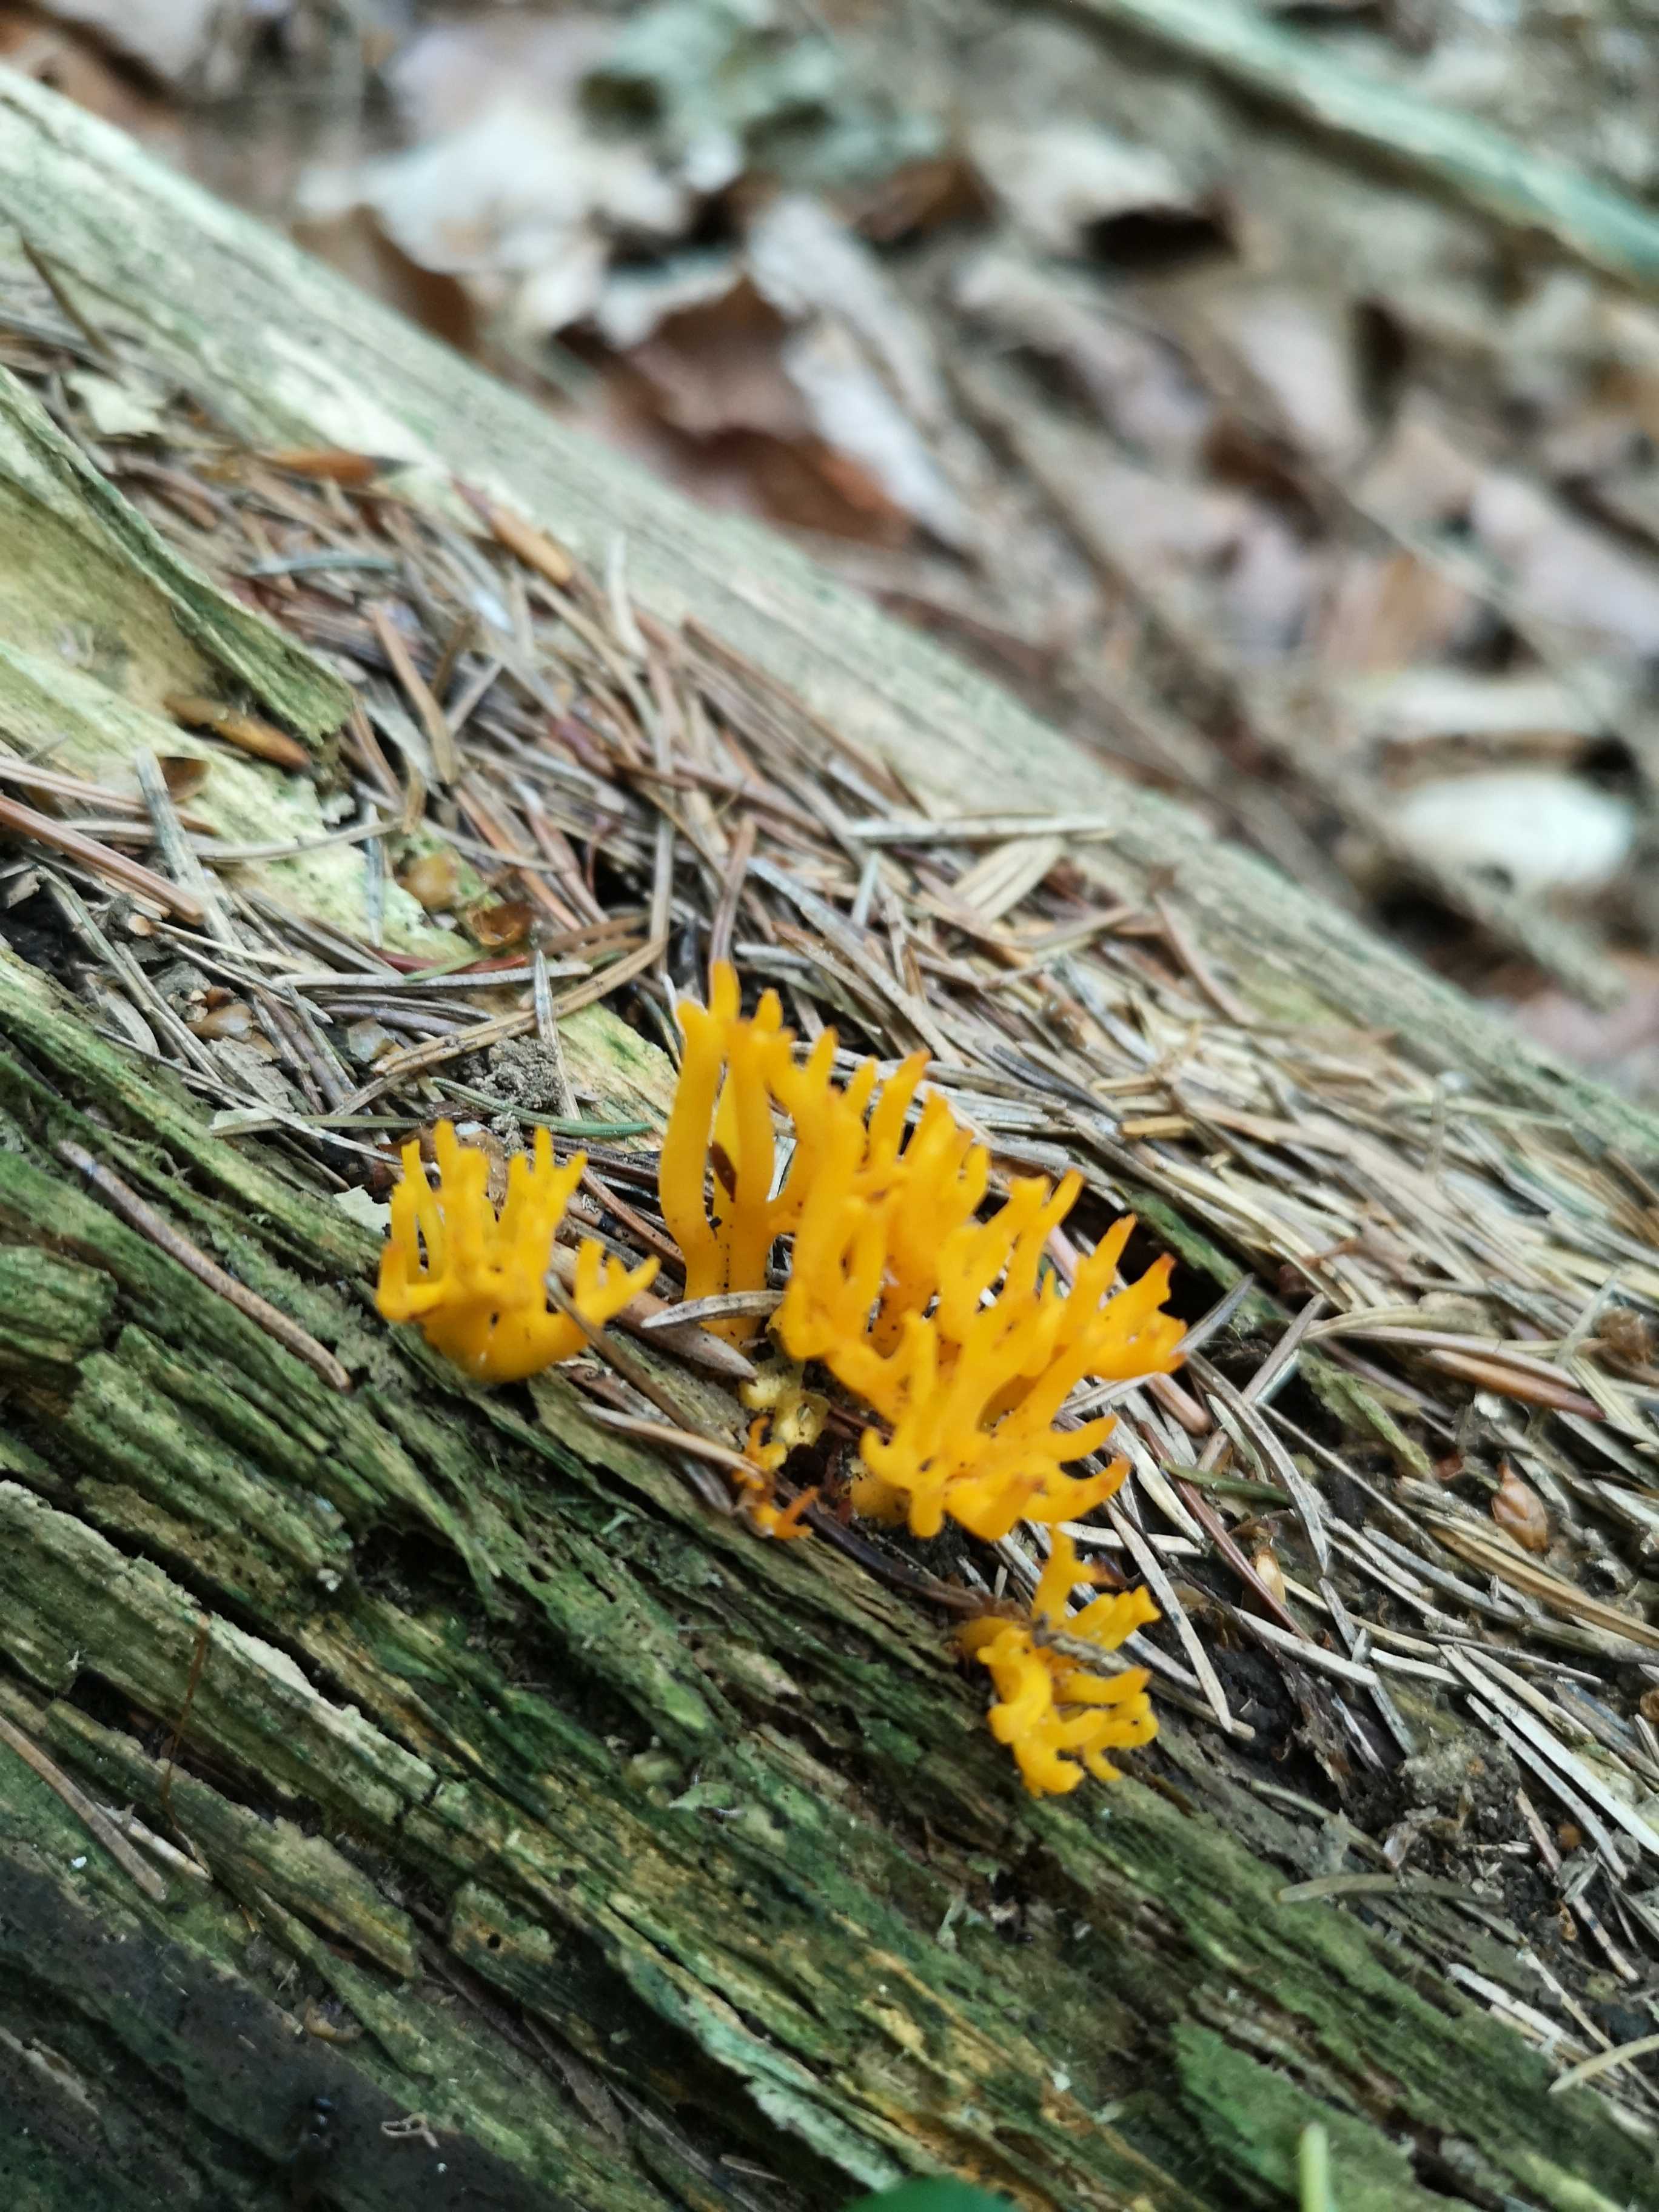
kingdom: Fungi
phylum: Basidiomycota
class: Dacrymycetes
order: Dacrymycetales
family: Dacrymycetaceae
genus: Calocera
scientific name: Calocera viscosa
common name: almindelig guldgaffel
